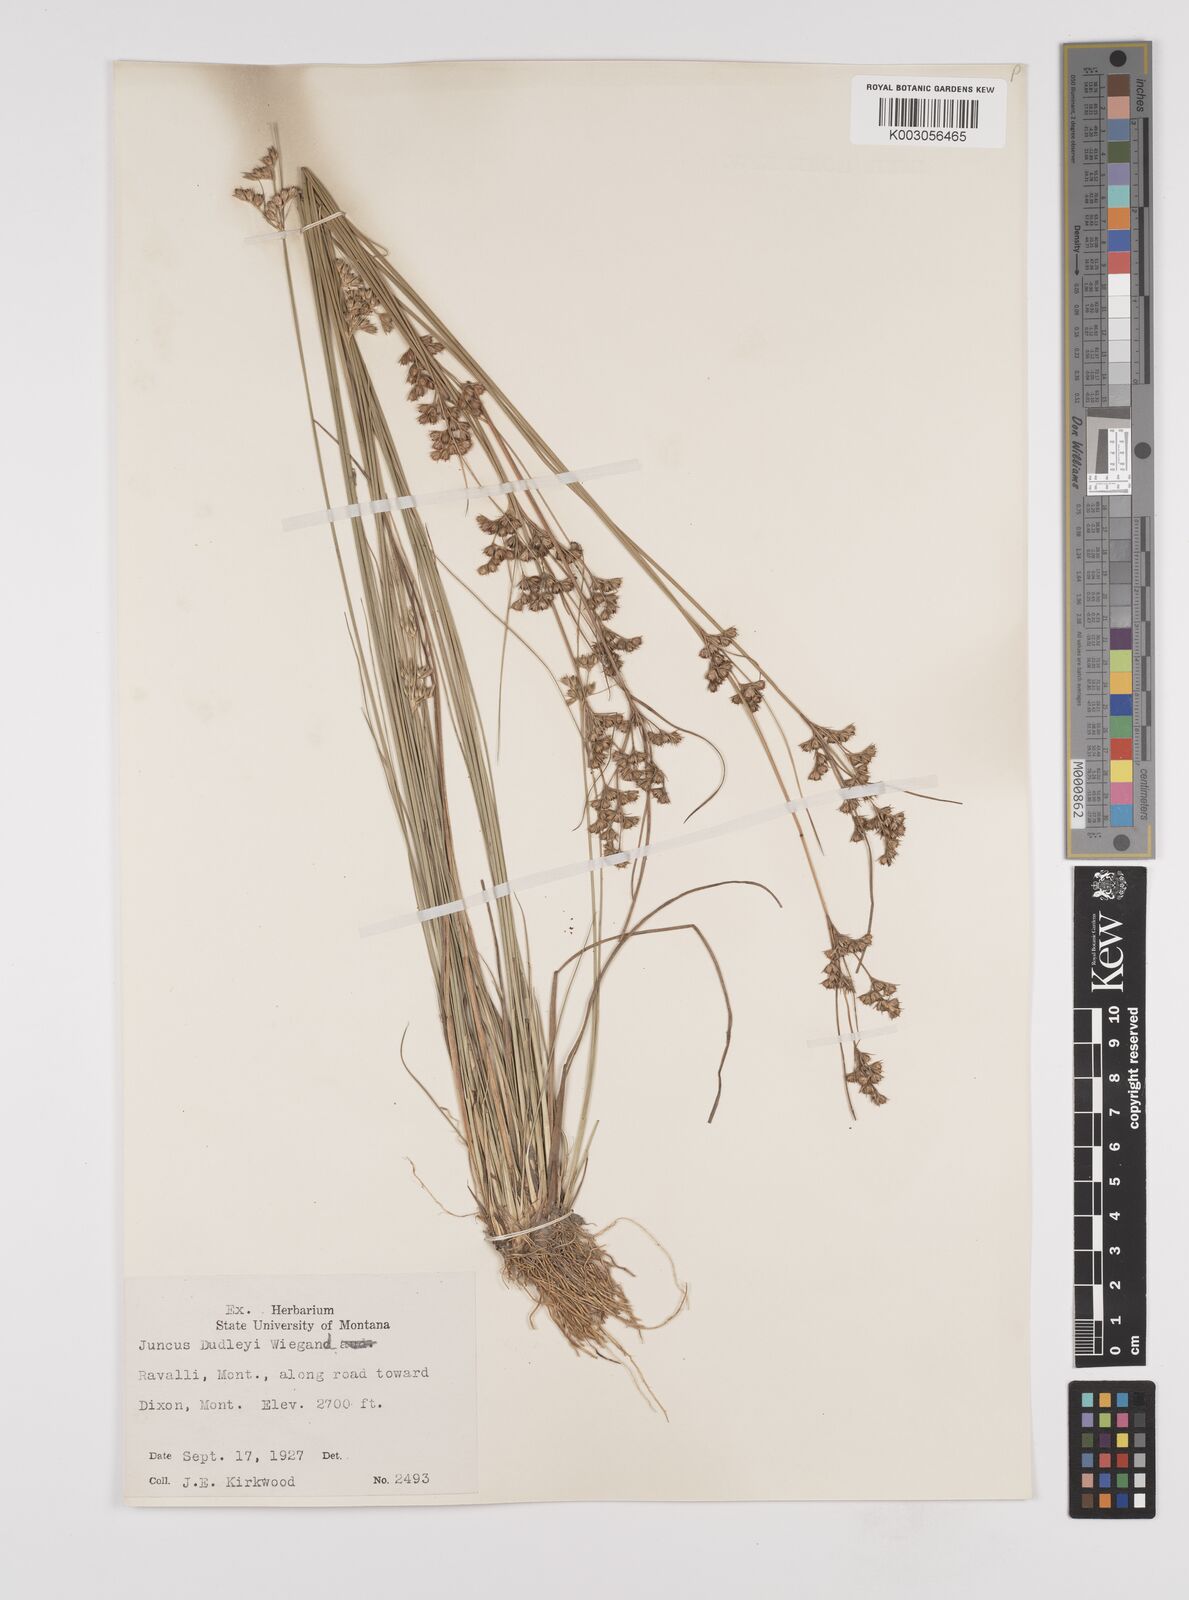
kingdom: Plantae
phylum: Tracheophyta
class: Liliopsida
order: Poales
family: Juncaceae
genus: Juncus
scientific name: Juncus dudleyi
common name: Dudley's rush
